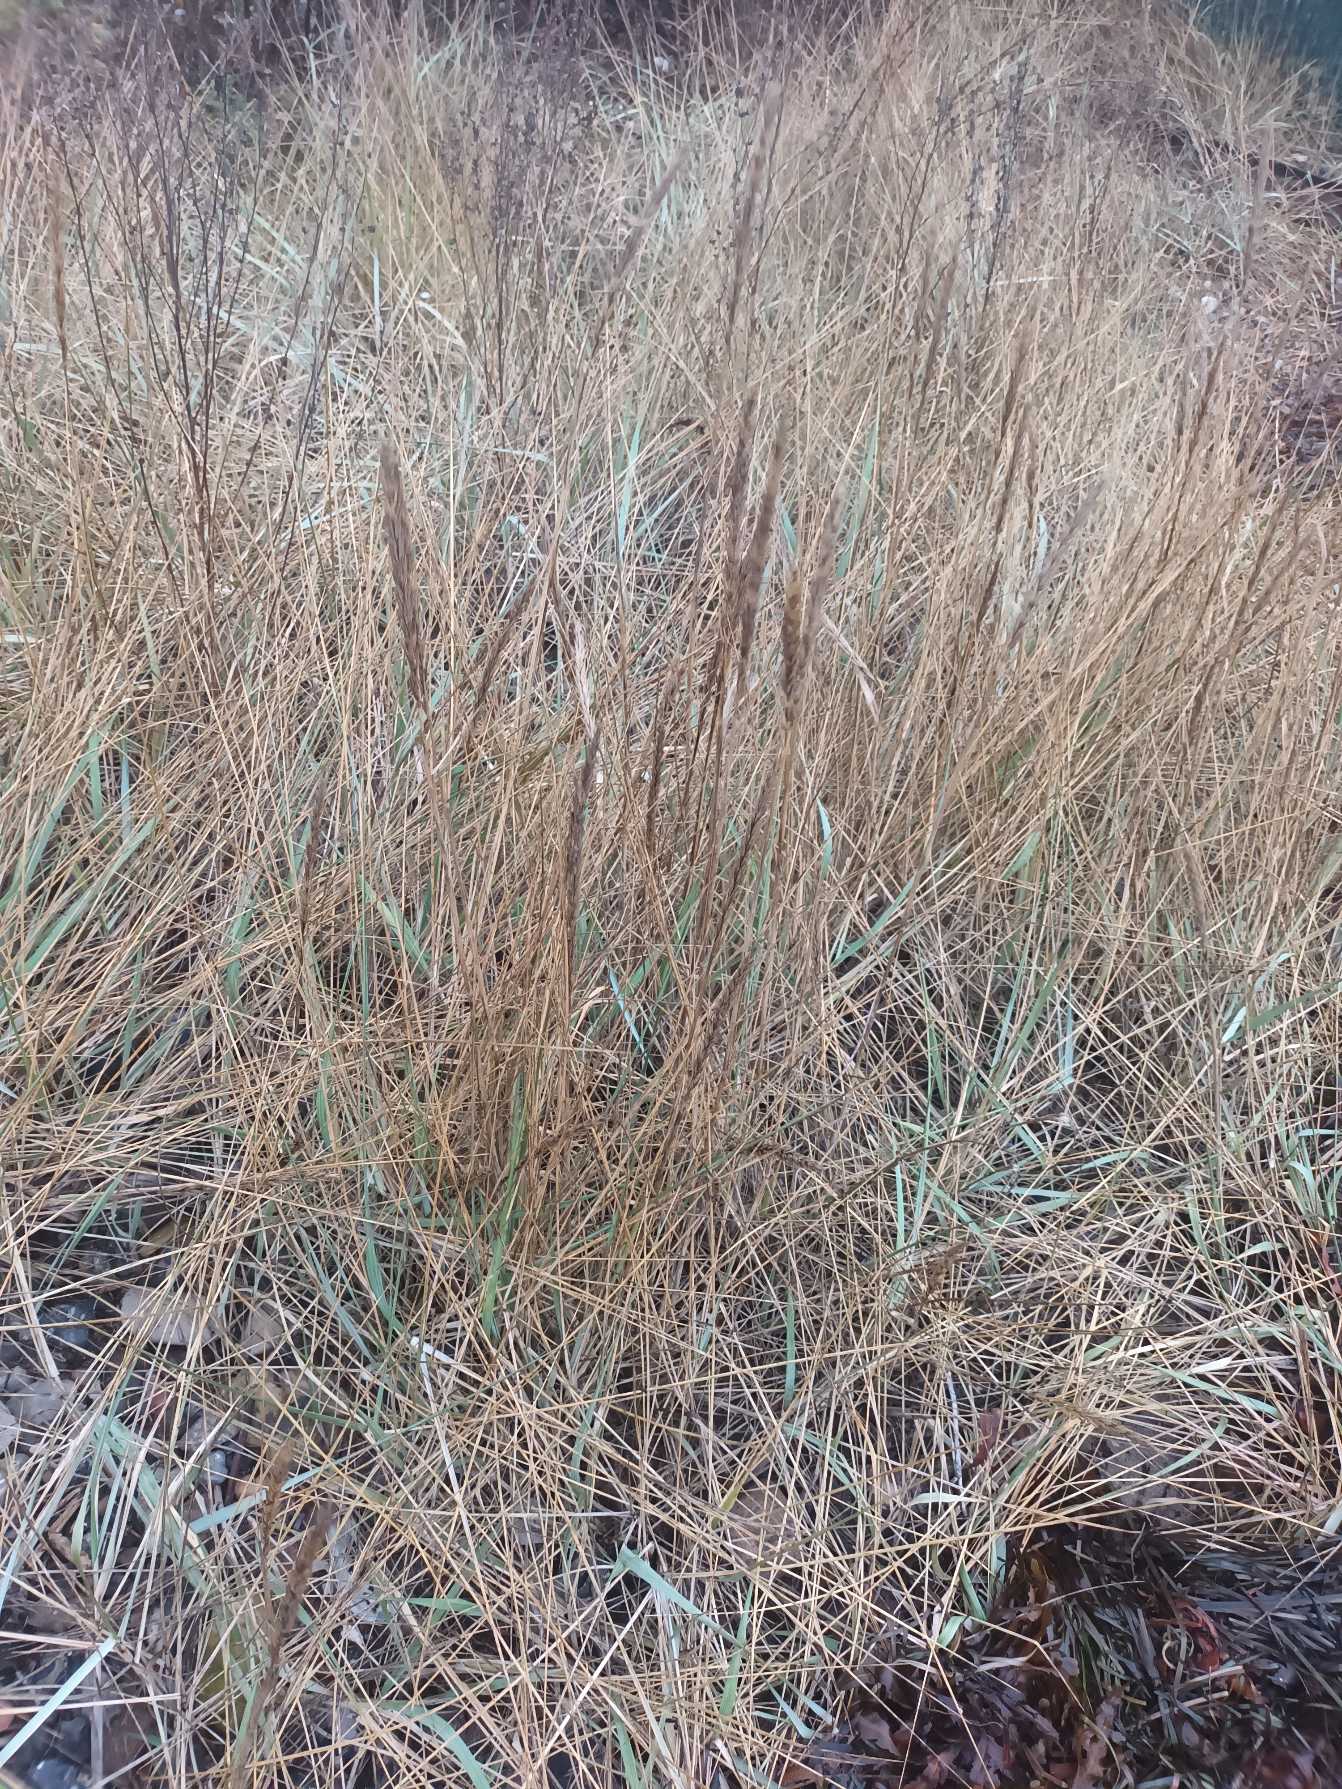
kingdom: Plantae
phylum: Tracheophyta
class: Liliopsida
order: Poales
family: Poaceae
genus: Leymus
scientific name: Leymus arenarius
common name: Marehalm
